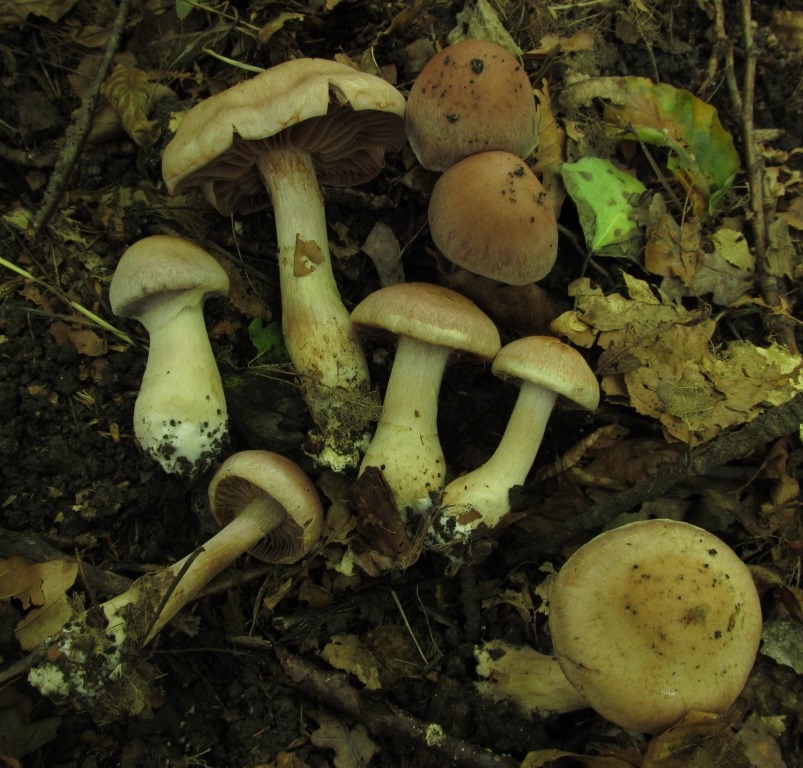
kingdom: Fungi
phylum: Basidiomycota
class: Agaricomycetes
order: Agaricales
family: Cortinariaceae
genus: Cortinarius
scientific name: Cortinarius lucorum
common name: aspe-slørhat
